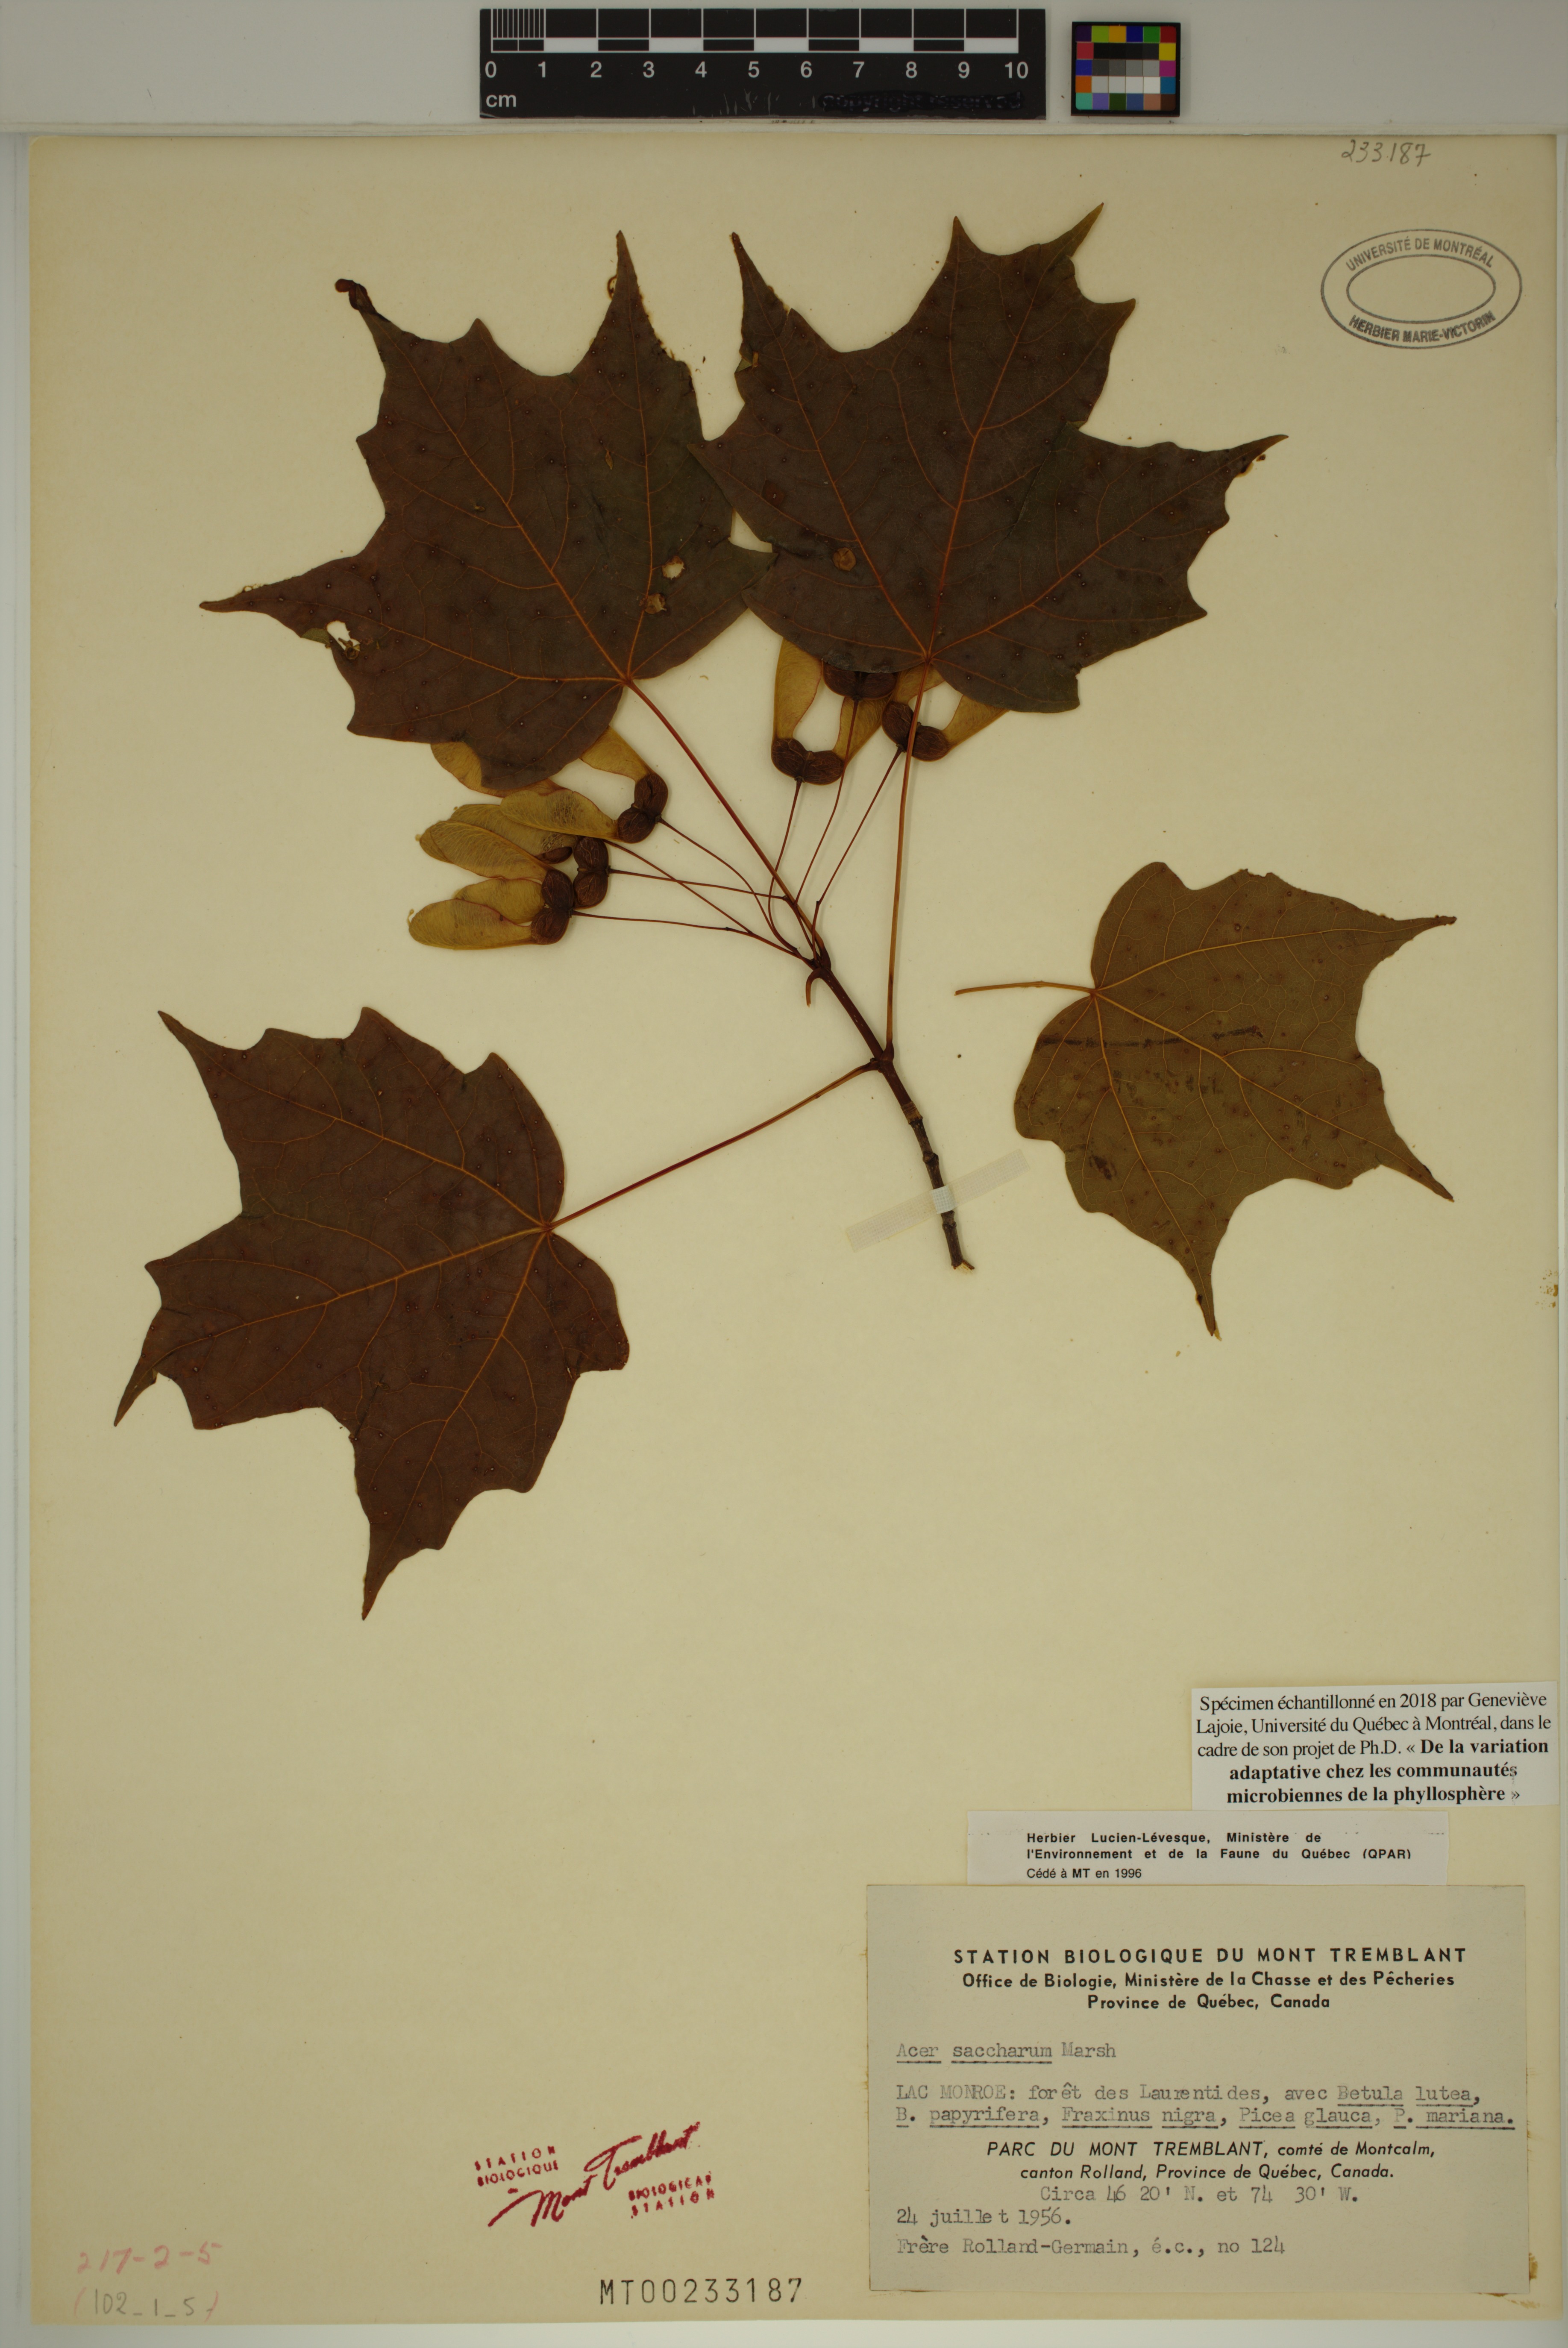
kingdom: Plantae
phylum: Tracheophyta
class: Magnoliopsida
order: Sapindales
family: Sapindaceae
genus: Acer
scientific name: Acer saccharum
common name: Sugar maple
